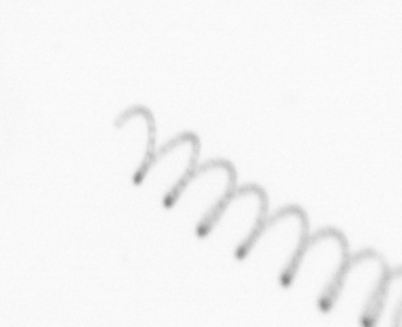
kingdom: Chromista
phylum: Ochrophyta
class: Bacillariophyceae
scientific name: Bacillariophyceae
